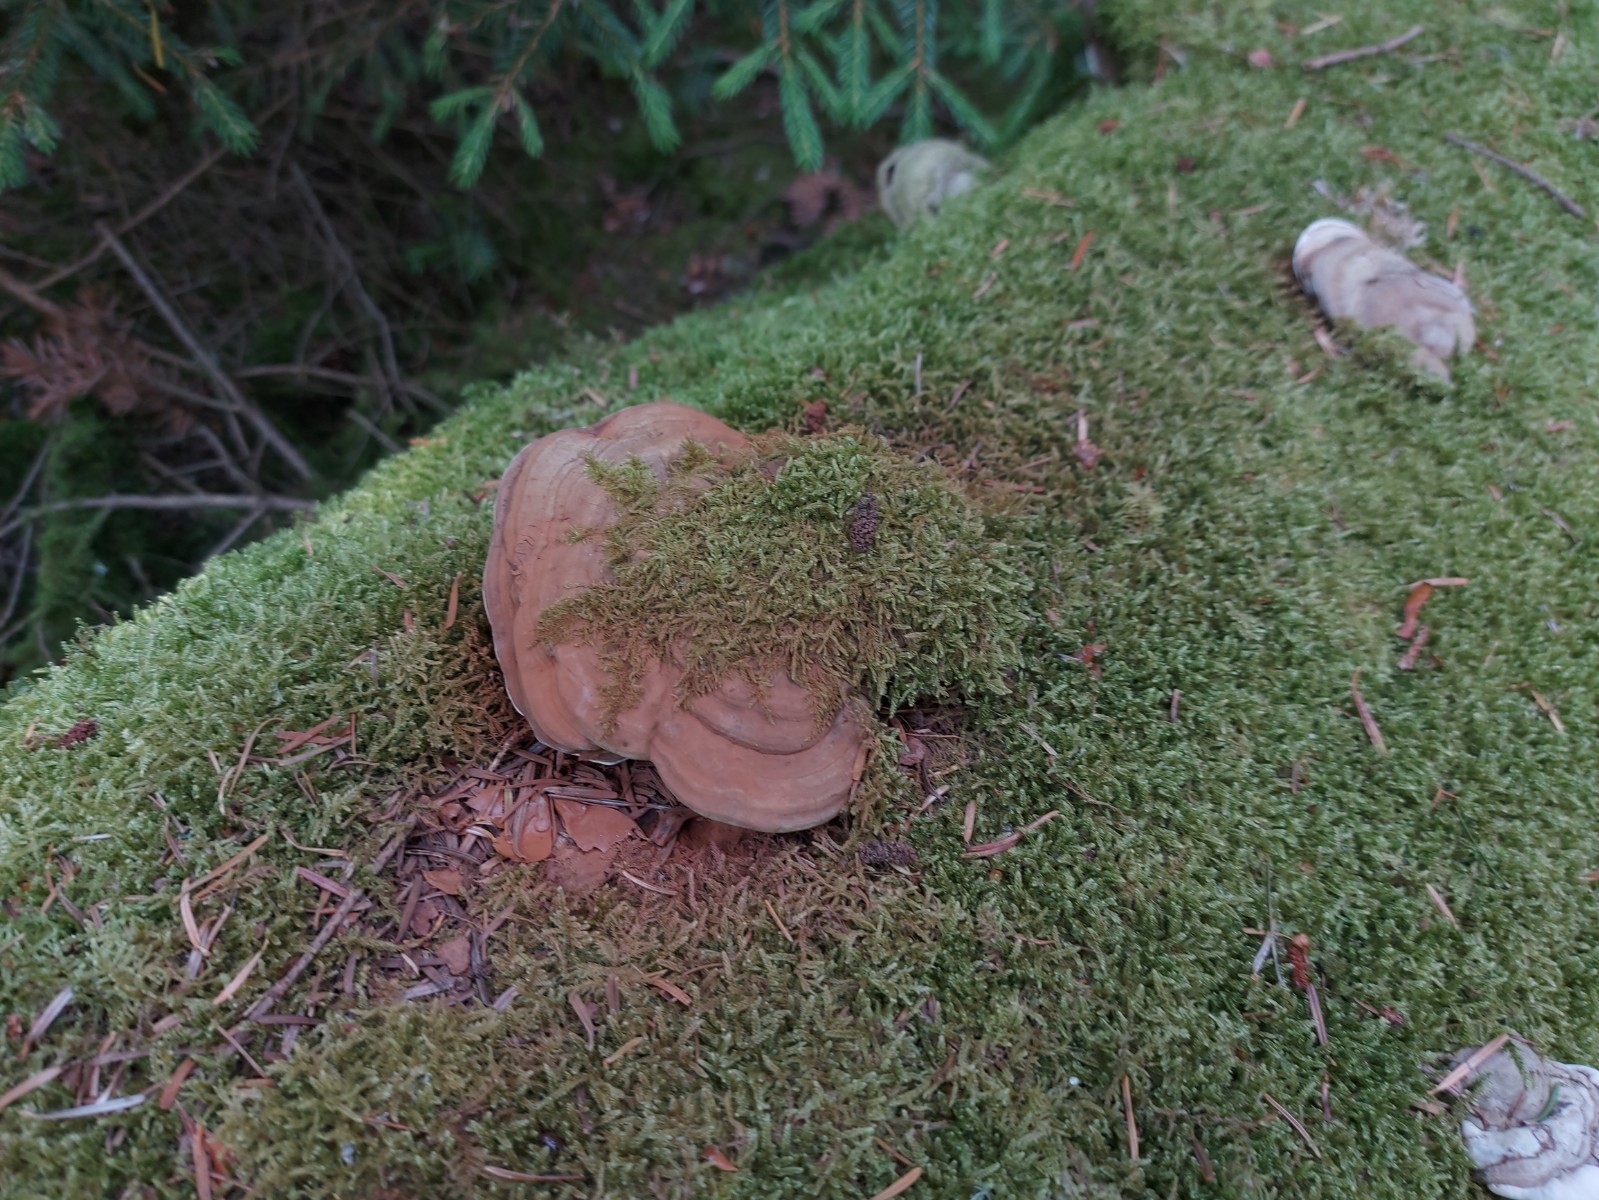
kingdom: Fungi
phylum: Basidiomycota
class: Agaricomycetes
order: Polyporales
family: Polyporaceae
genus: Ganoderma
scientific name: Ganoderma applanatum
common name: flad lakporesvamp
